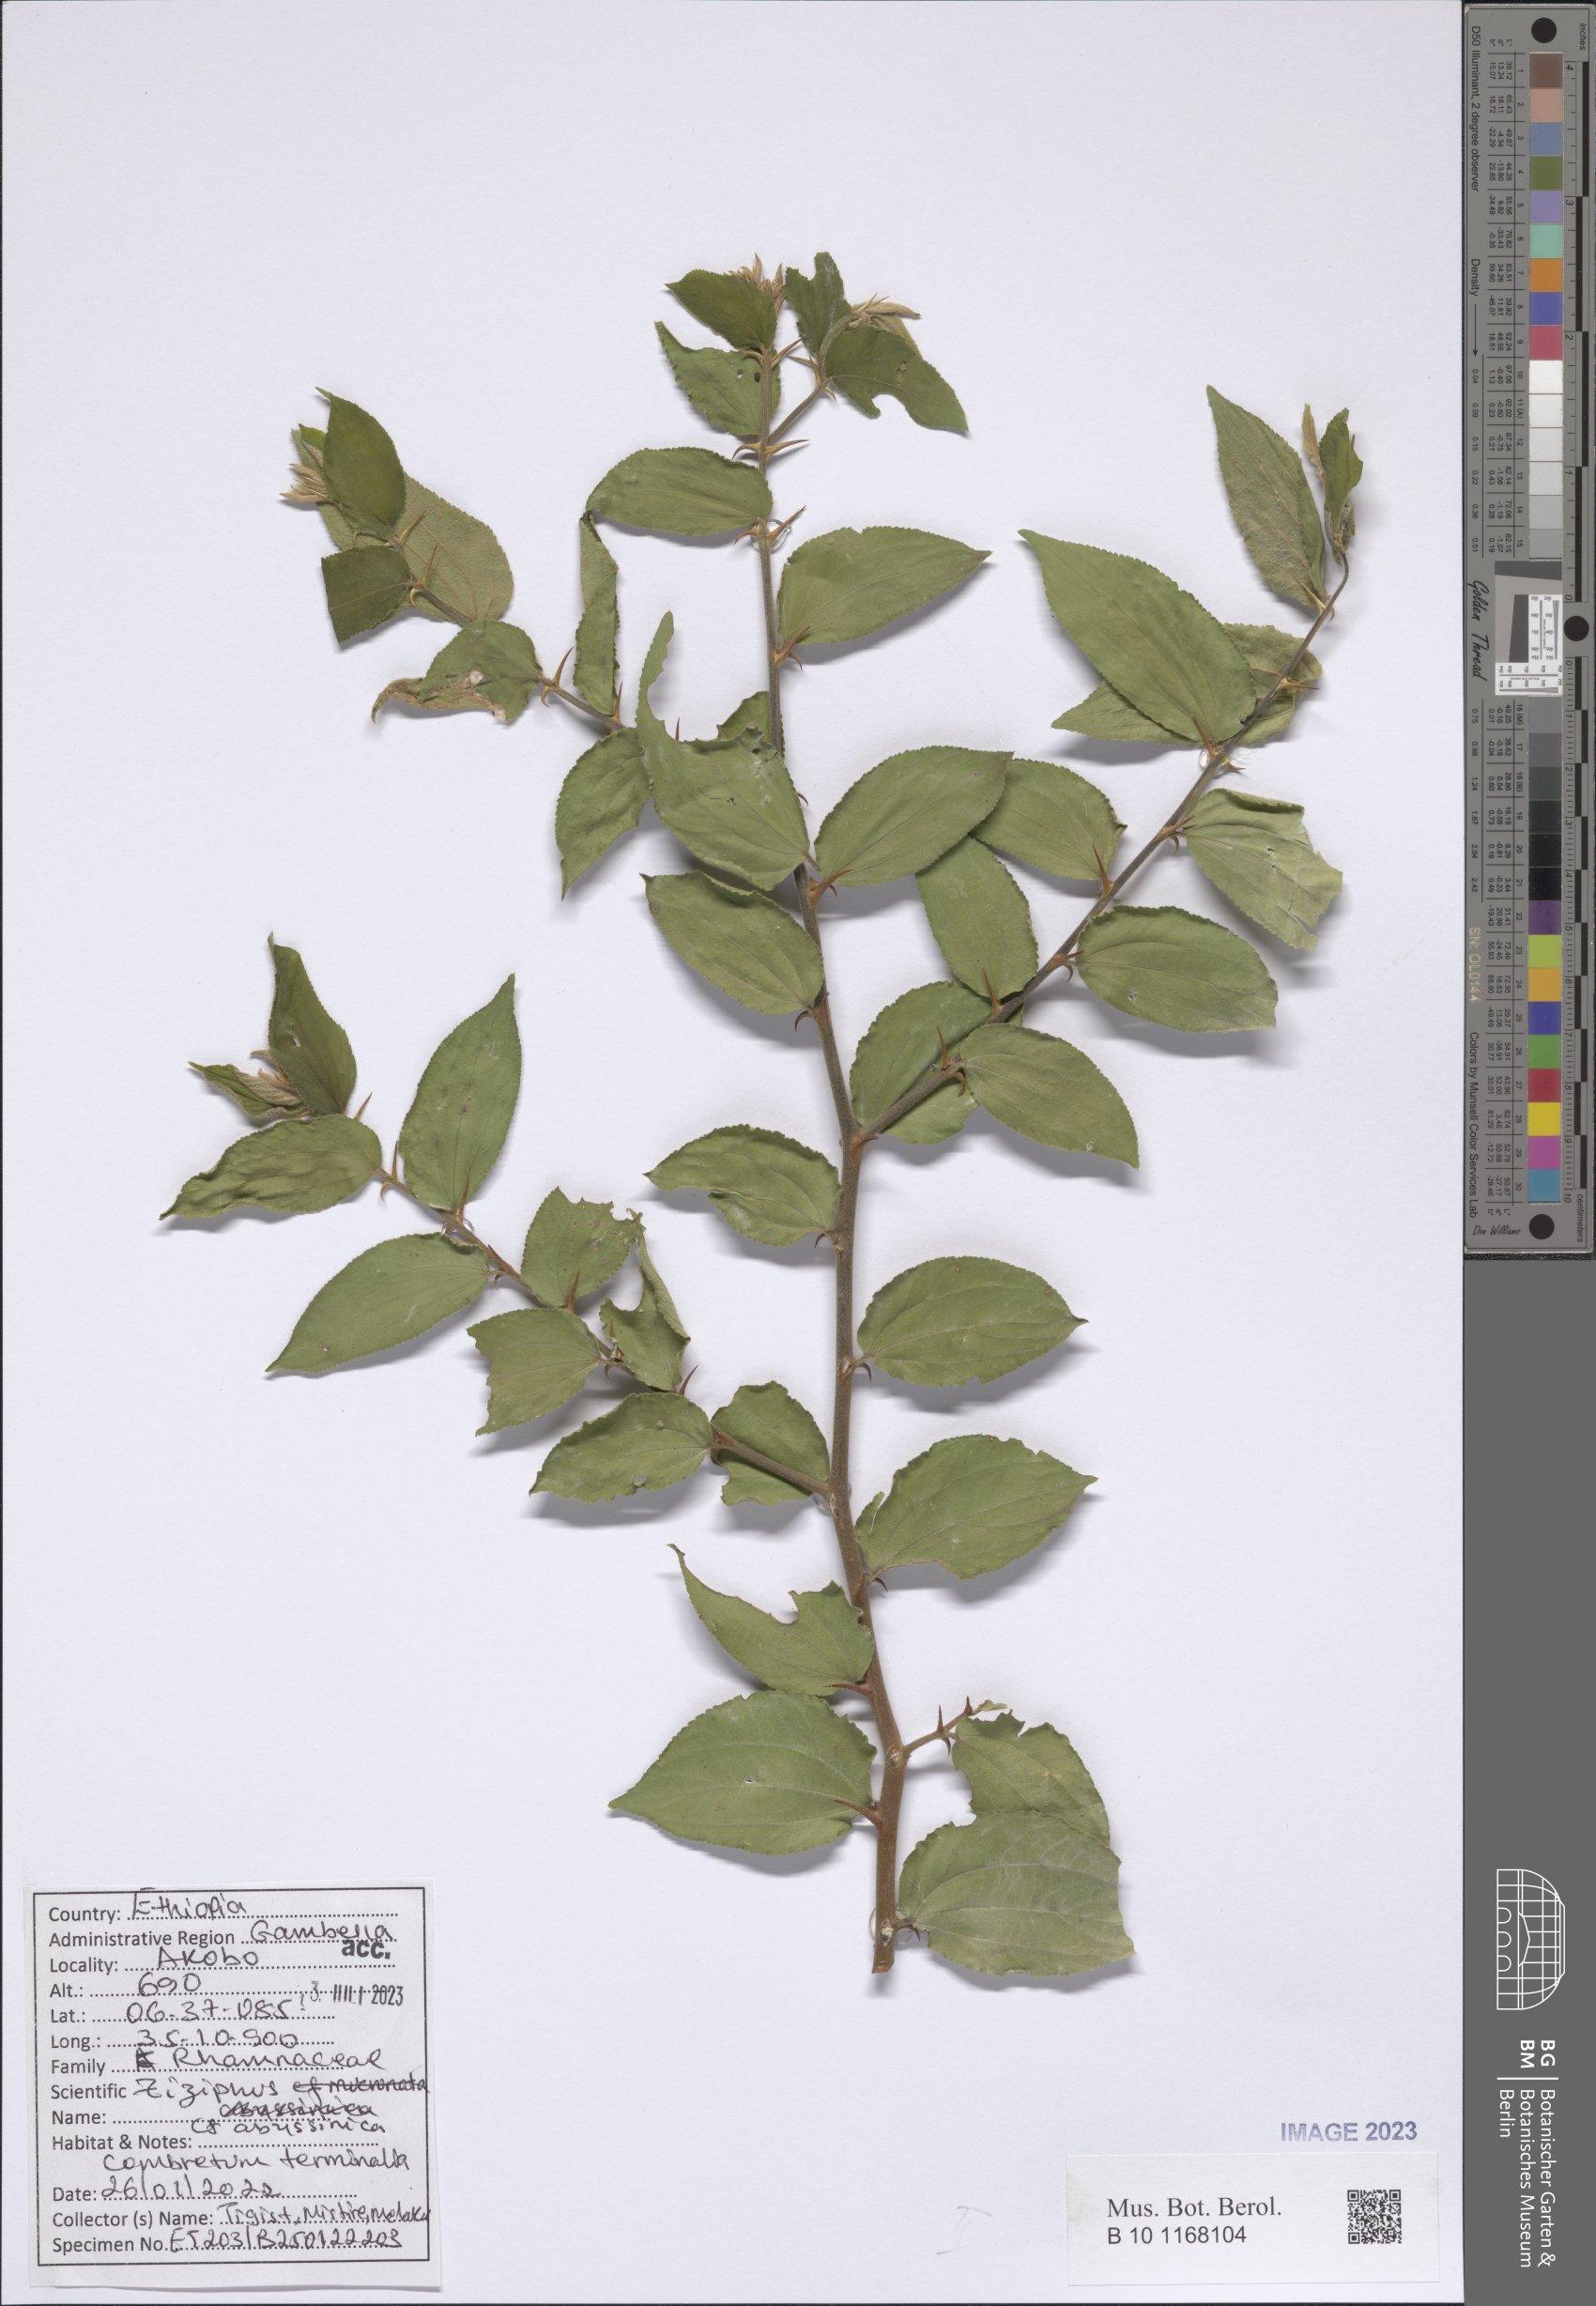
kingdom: Plantae
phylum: Tracheophyta
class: Magnoliopsida
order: Rosales
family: Rhamnaceae
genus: Ziziphus
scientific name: Ziziphus abyssinica
